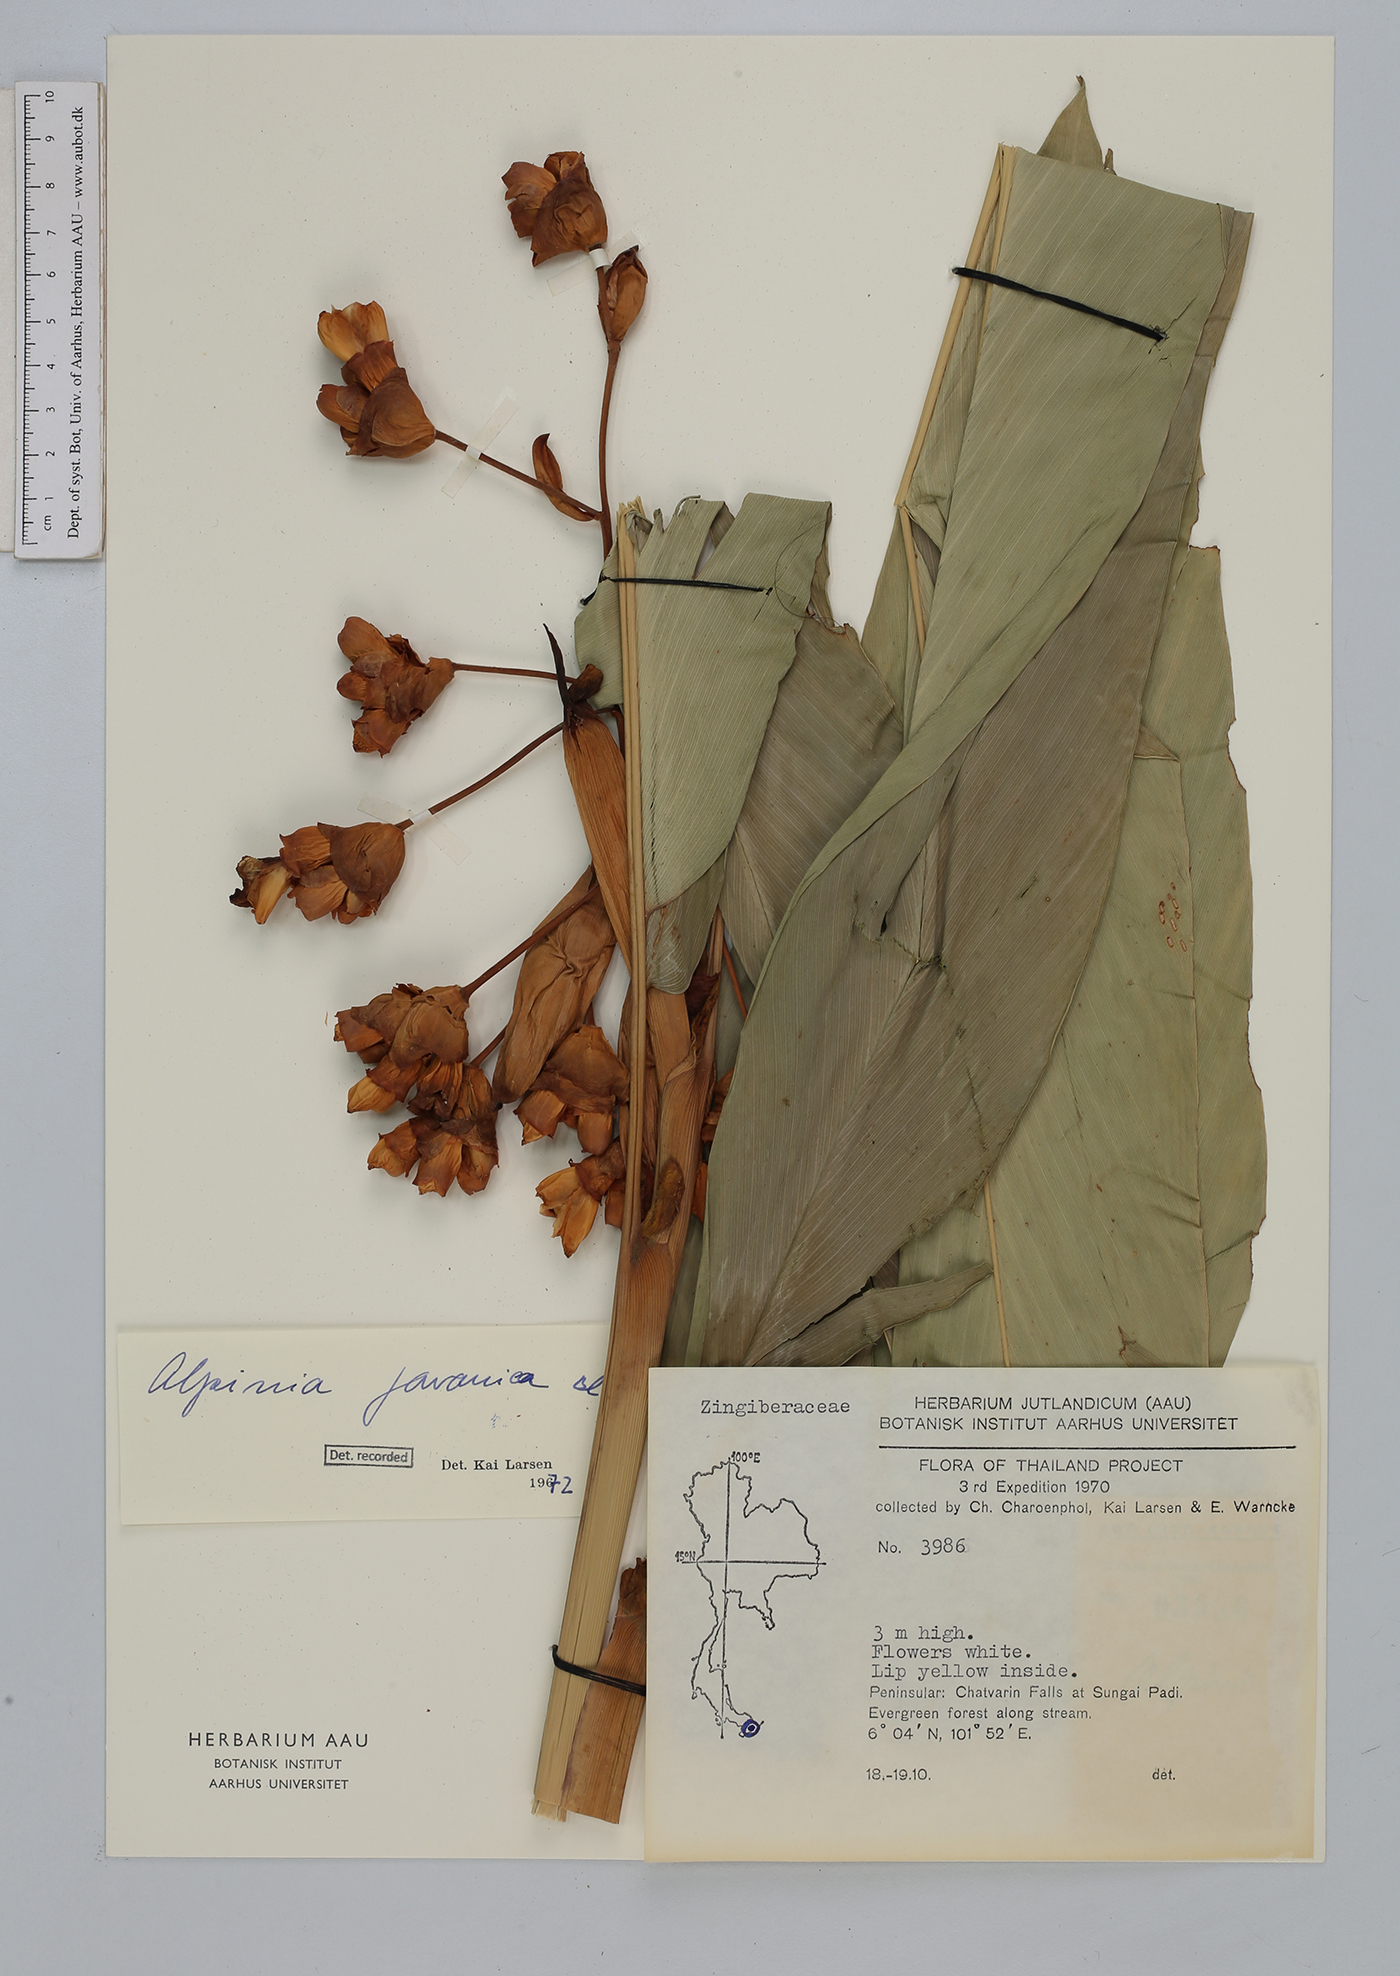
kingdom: Plantae
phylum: Tracheophyta
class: Liliopsida
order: Zingiberales
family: Zingiberaceae
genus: Alpinia
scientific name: Alpinia javanica
